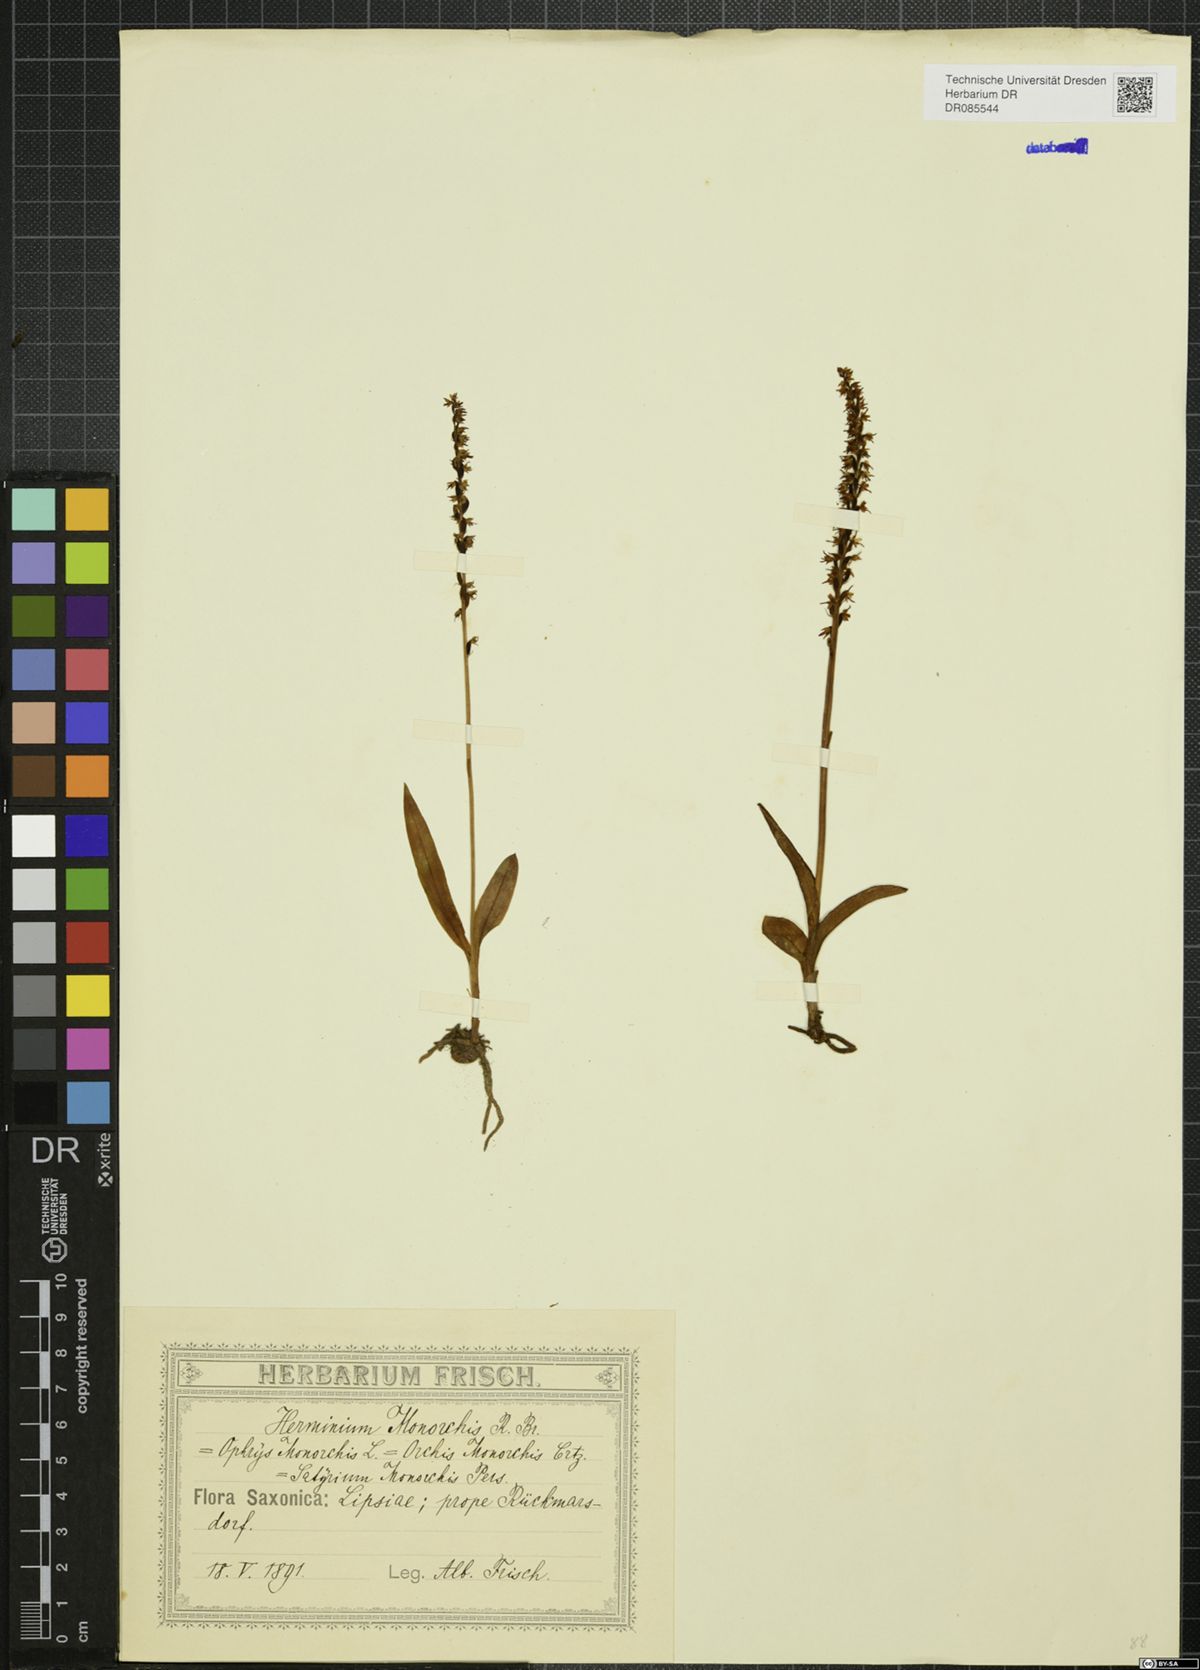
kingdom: Plantae
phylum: Tracheophyta
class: Liliopsida
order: Asparagales
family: Orchidaceae
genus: Herminium
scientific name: Herminium monorchis
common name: Musk orchid
